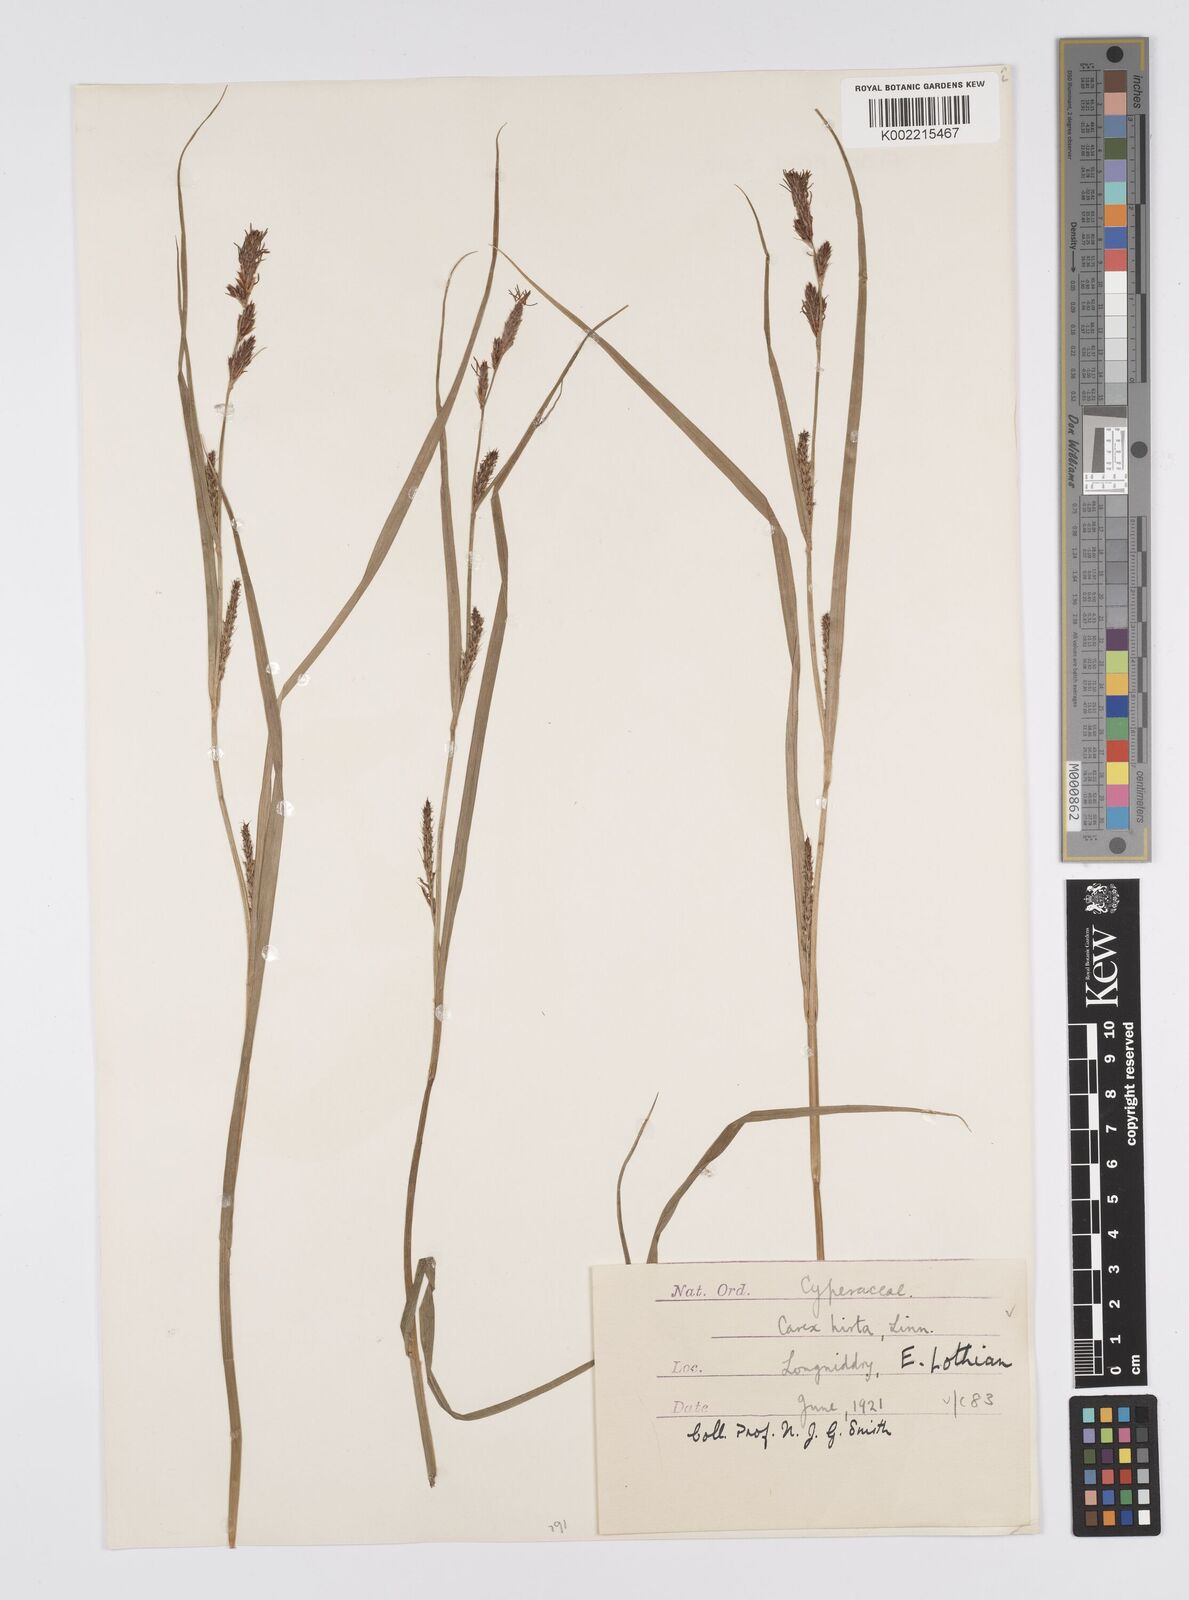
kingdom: Plantae
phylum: Tracheophyta
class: Liliopsida
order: Poales
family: Cyperaceae
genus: Carex
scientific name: Carex hirta
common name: Hairy sedge
